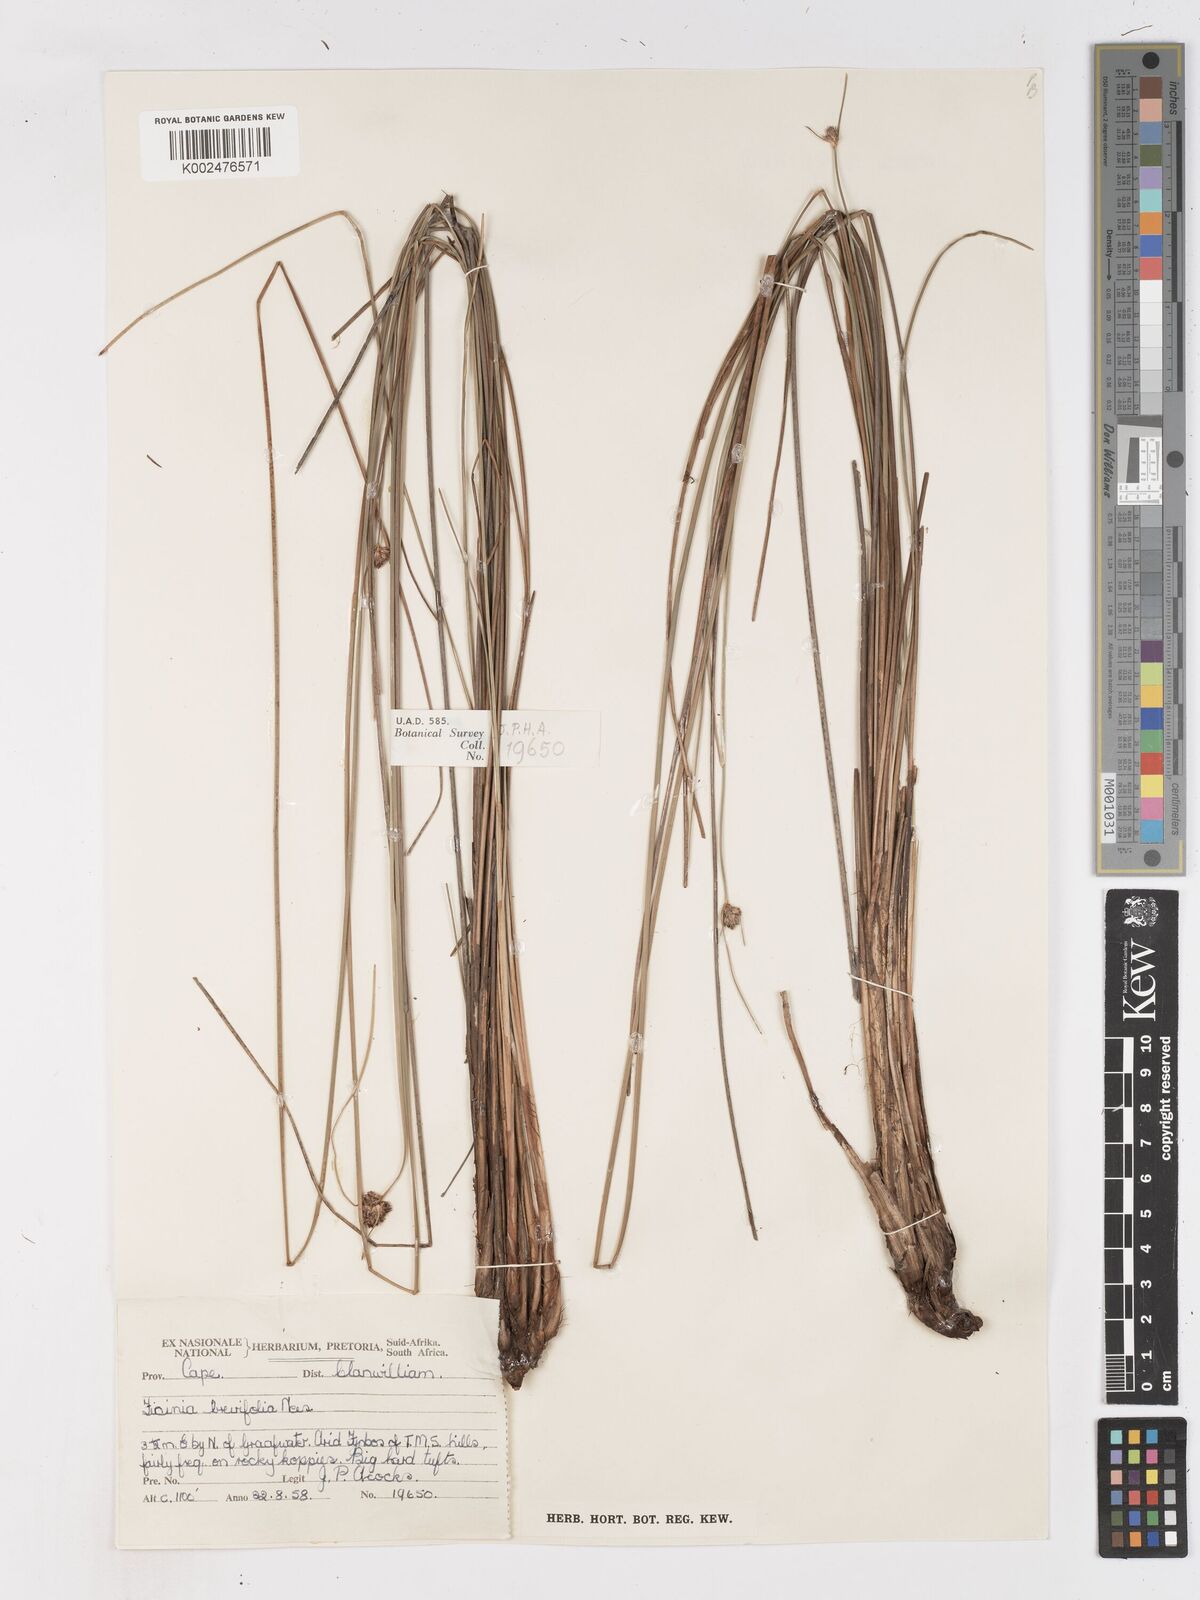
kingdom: Plantae
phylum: Tracheophyta
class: Liliopsida
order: Poales
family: Cyperaceae
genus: Ficinia
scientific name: Ficinia
